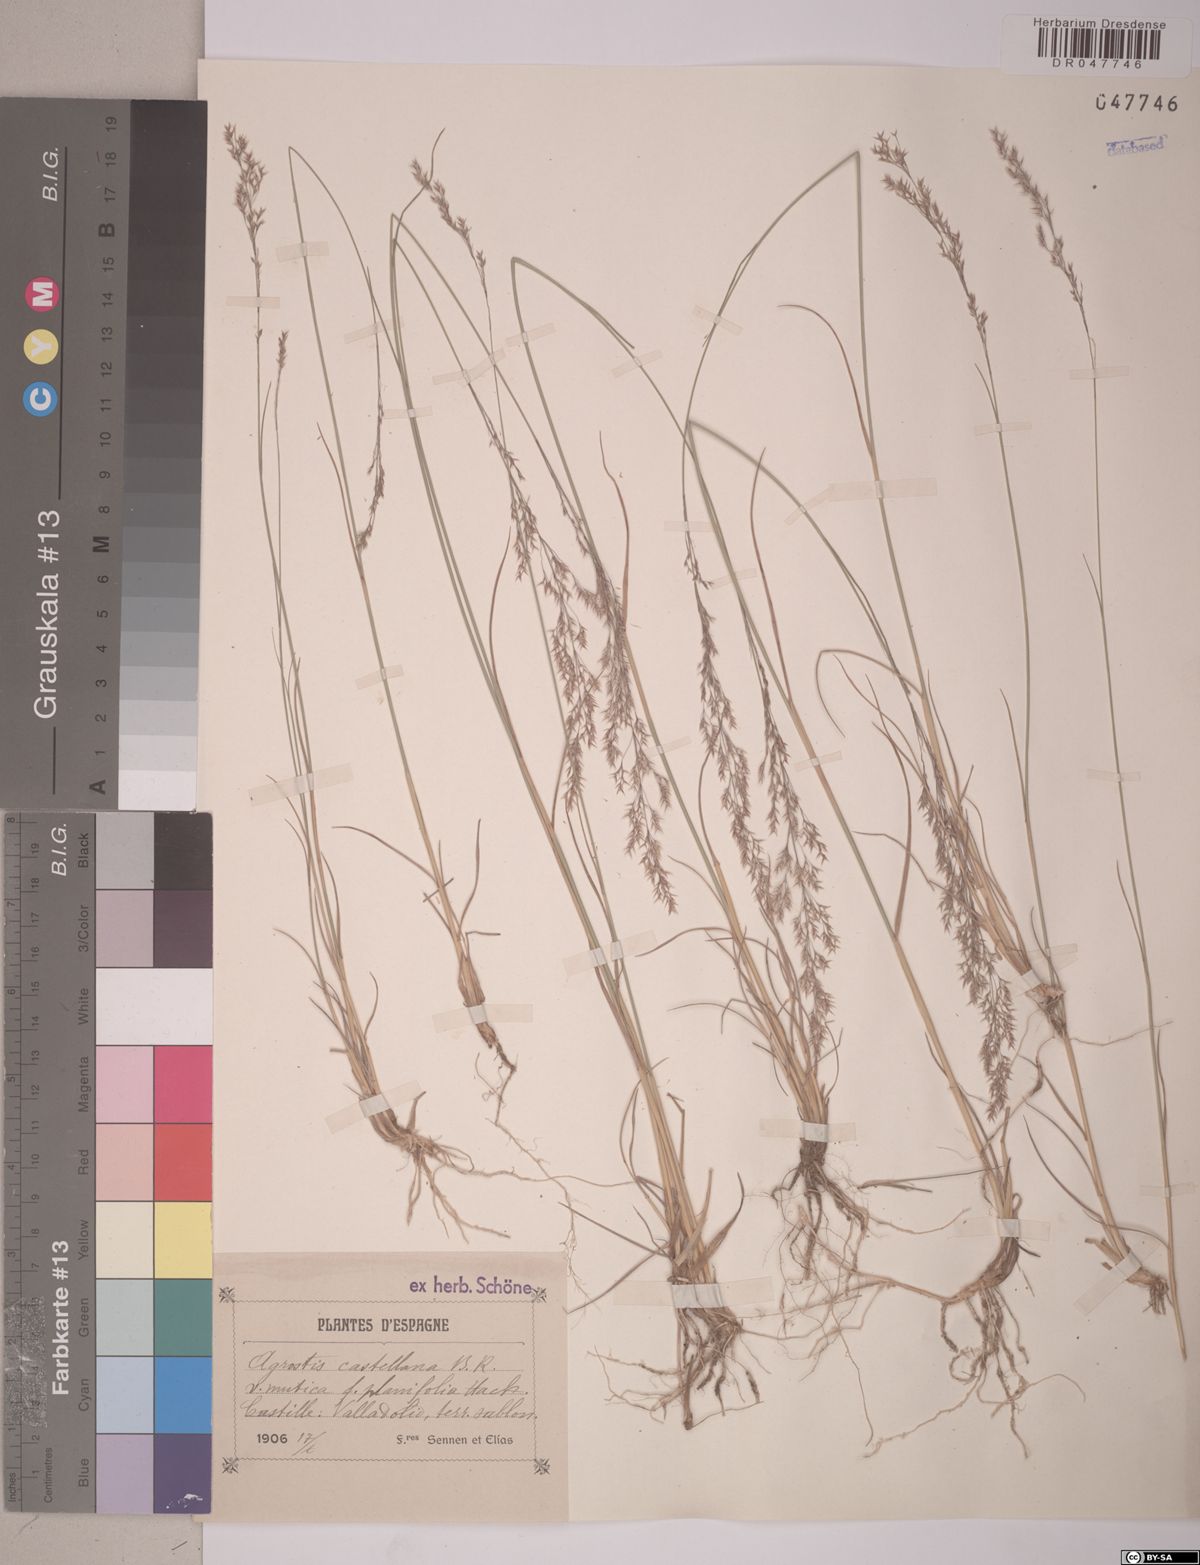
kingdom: Plantae
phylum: Tracheophyta
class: Liliopsida
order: Poales
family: Poaceae
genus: Agrostis
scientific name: Agrostis castellana
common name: Highland bent
